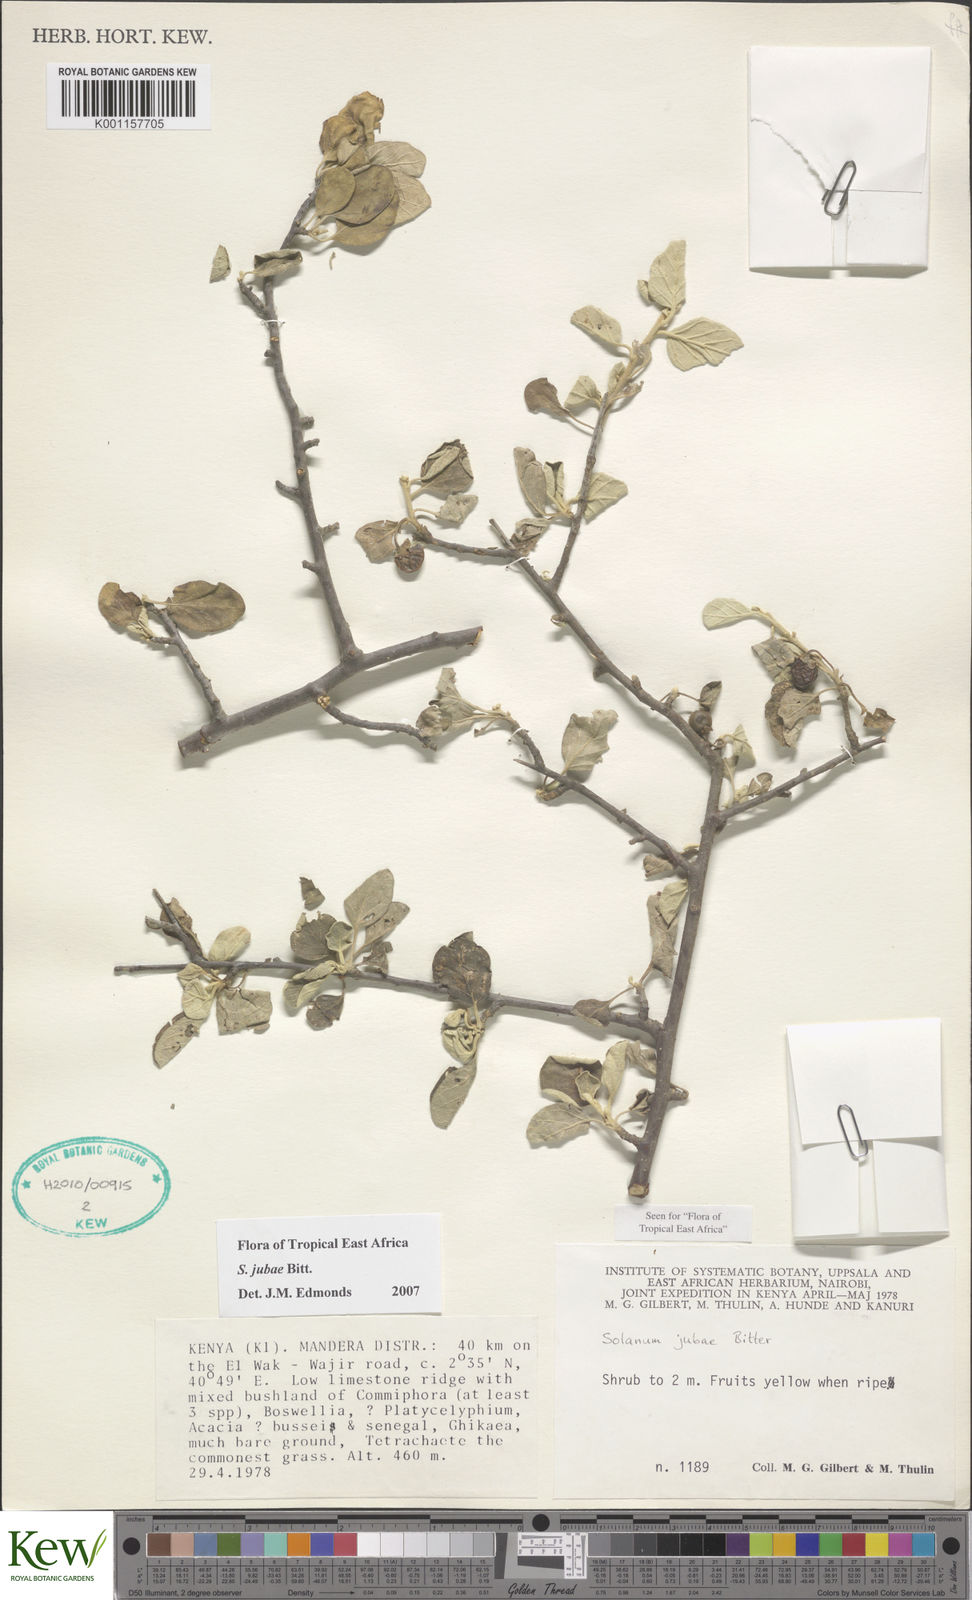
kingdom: Plantae
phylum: Tracheophyta
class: Magnoliopsida
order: Solanales
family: Solanaceae
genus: Solanum
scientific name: Solanum jubae
